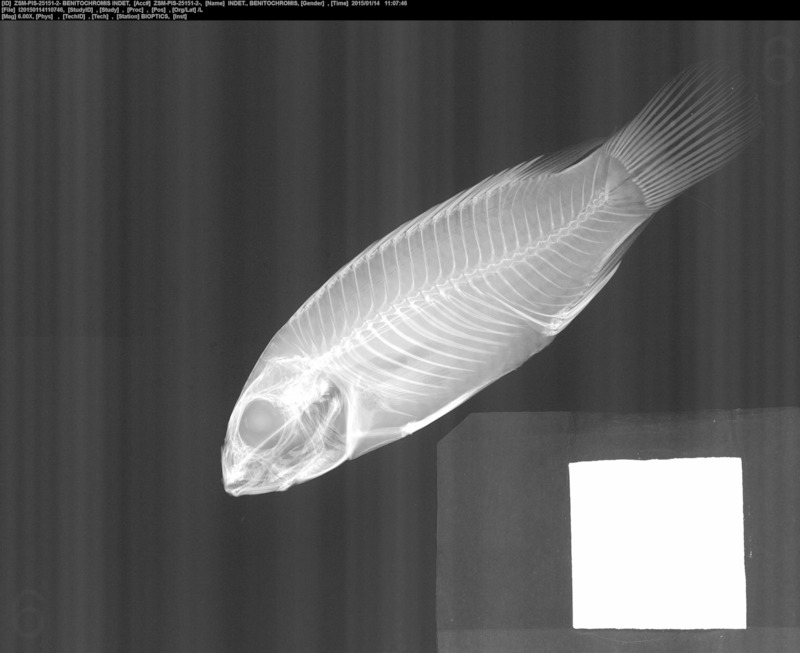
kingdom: Animalia
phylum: Chordata
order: Perciformes
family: Cichlidae
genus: Benitochromis
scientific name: Benitochromis
